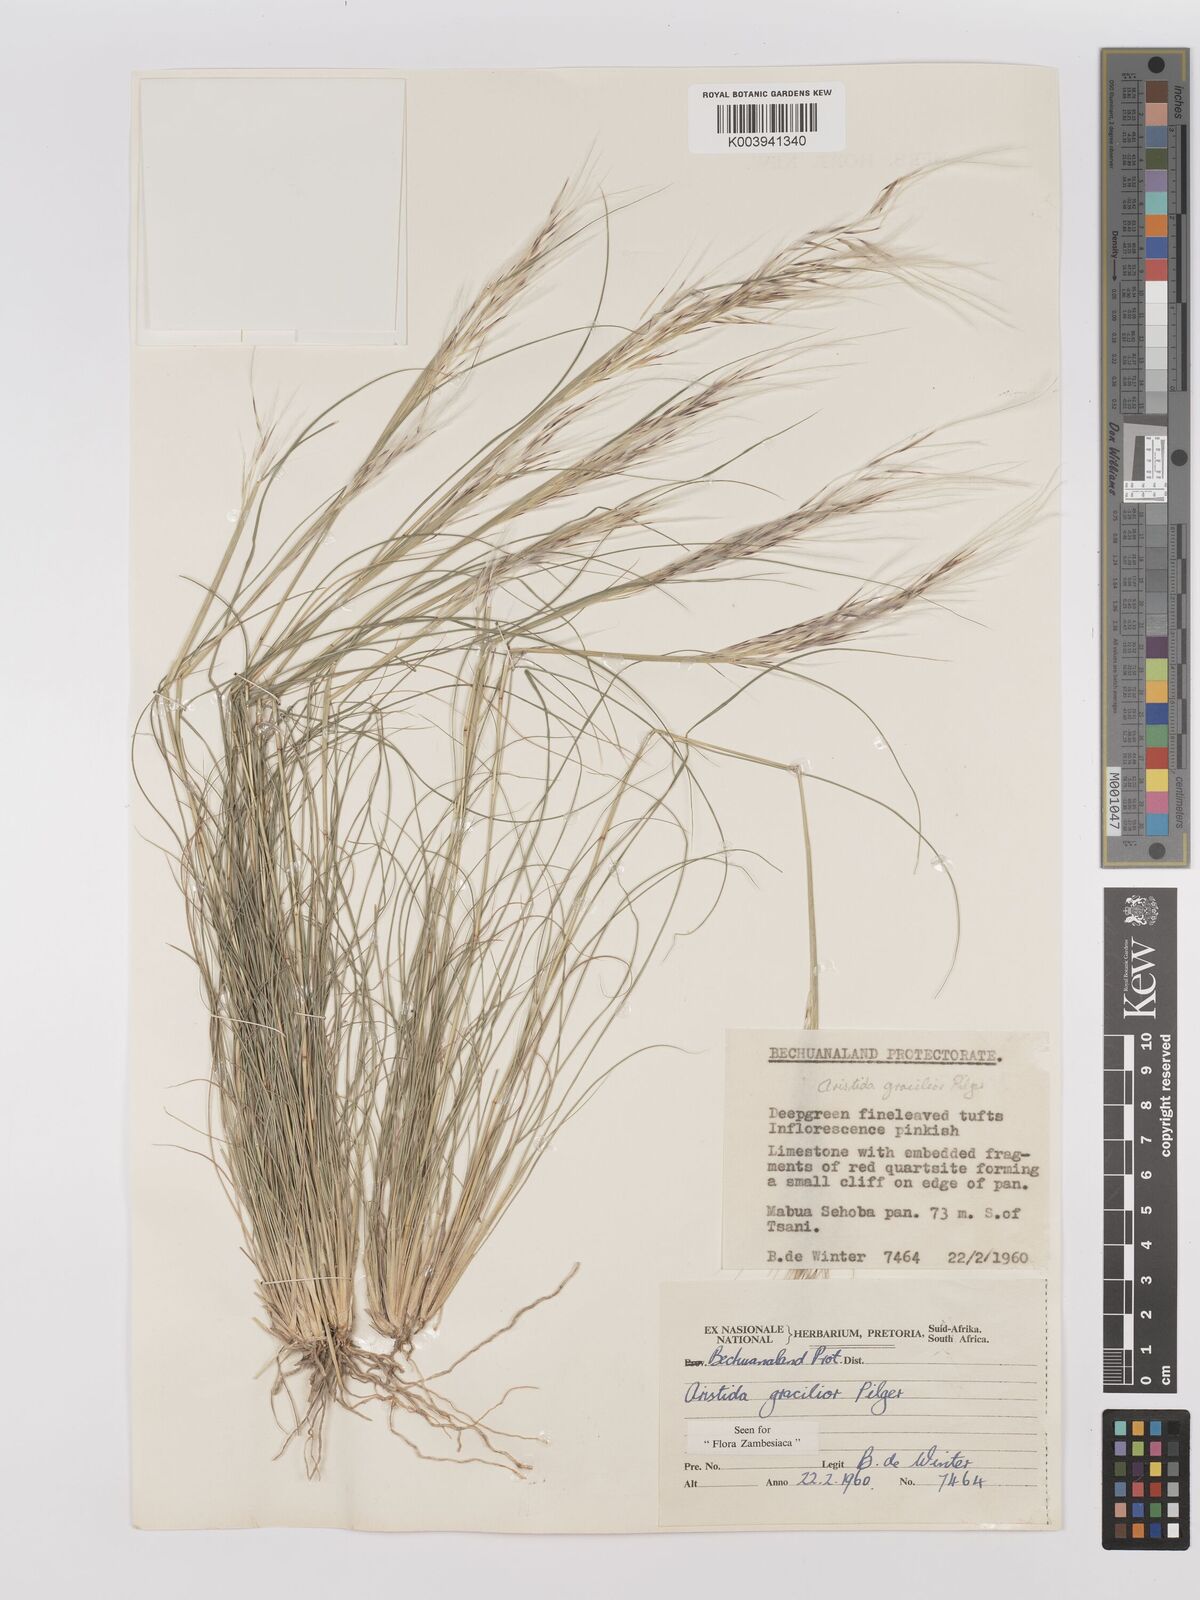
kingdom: Plantae
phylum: Tracheophyta
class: Liliopsida
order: Poales
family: Poaceae
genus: Stipagrostis
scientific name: Stipagrostis hirtigluma
